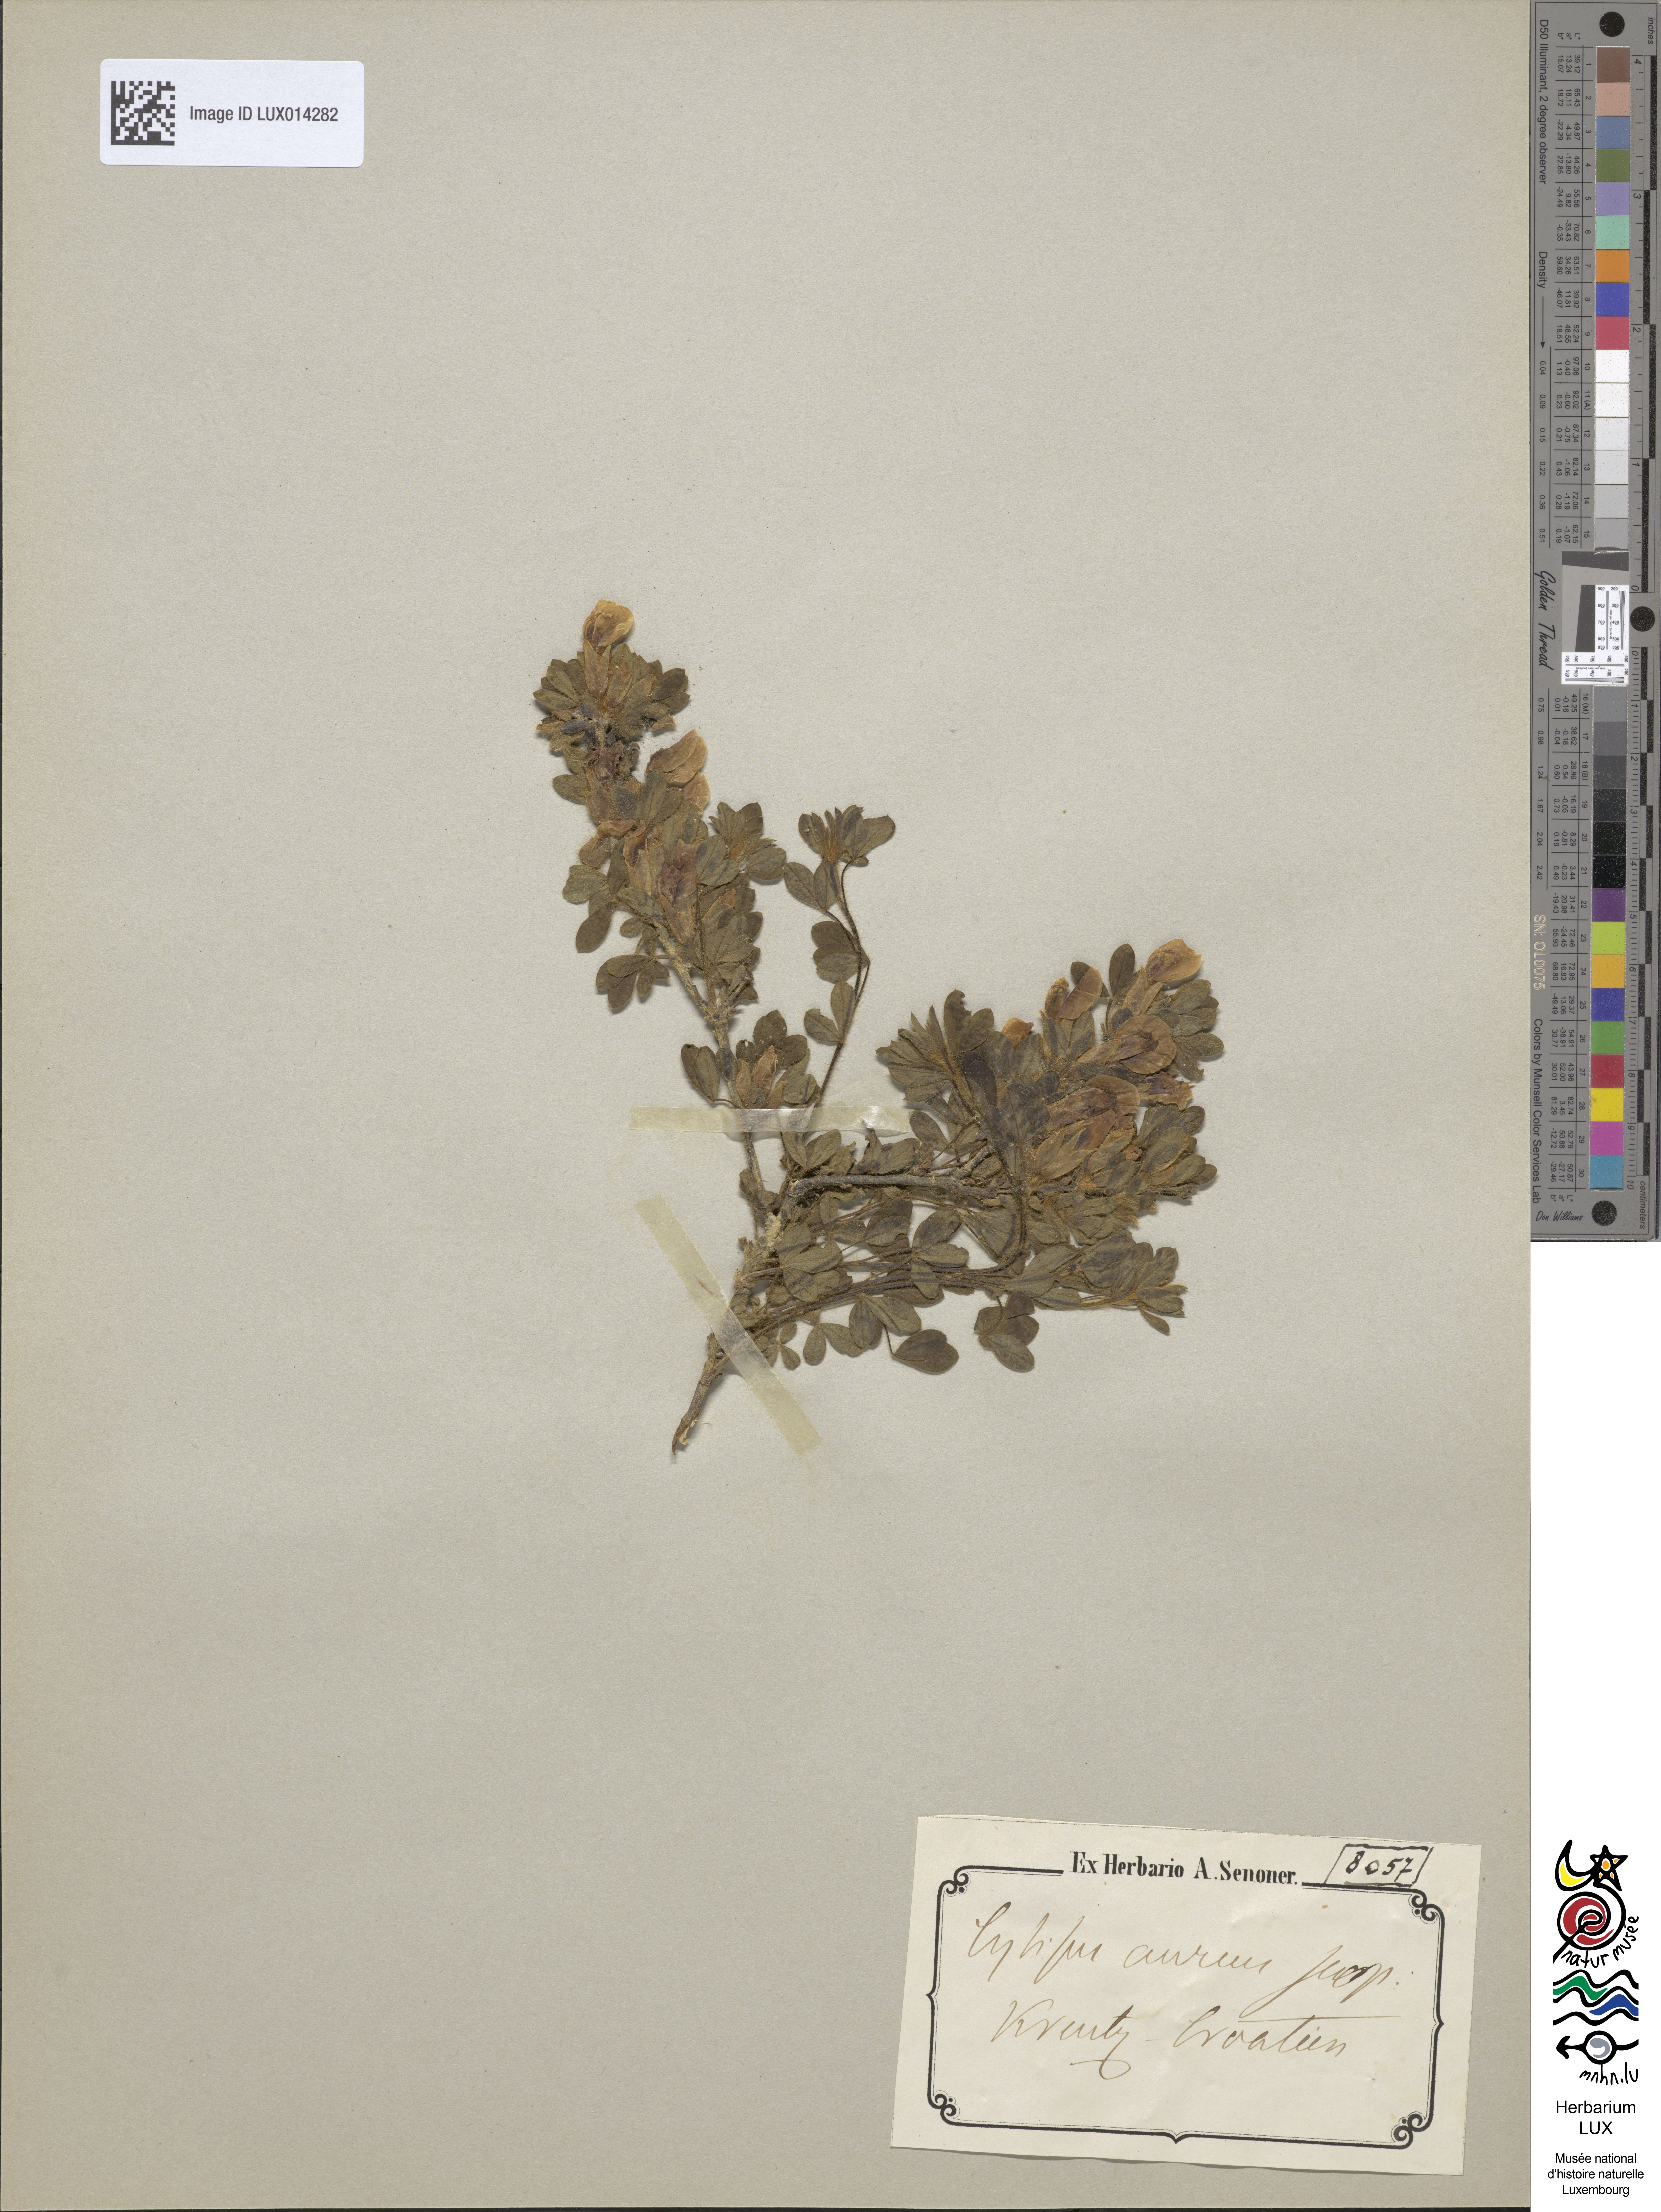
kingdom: Plantae
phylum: Tracheophyta
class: Magnoliopsida
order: Fabales
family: Fabaceae
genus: Laburnum
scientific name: Laburnum alpinum
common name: Scottish laburnum
